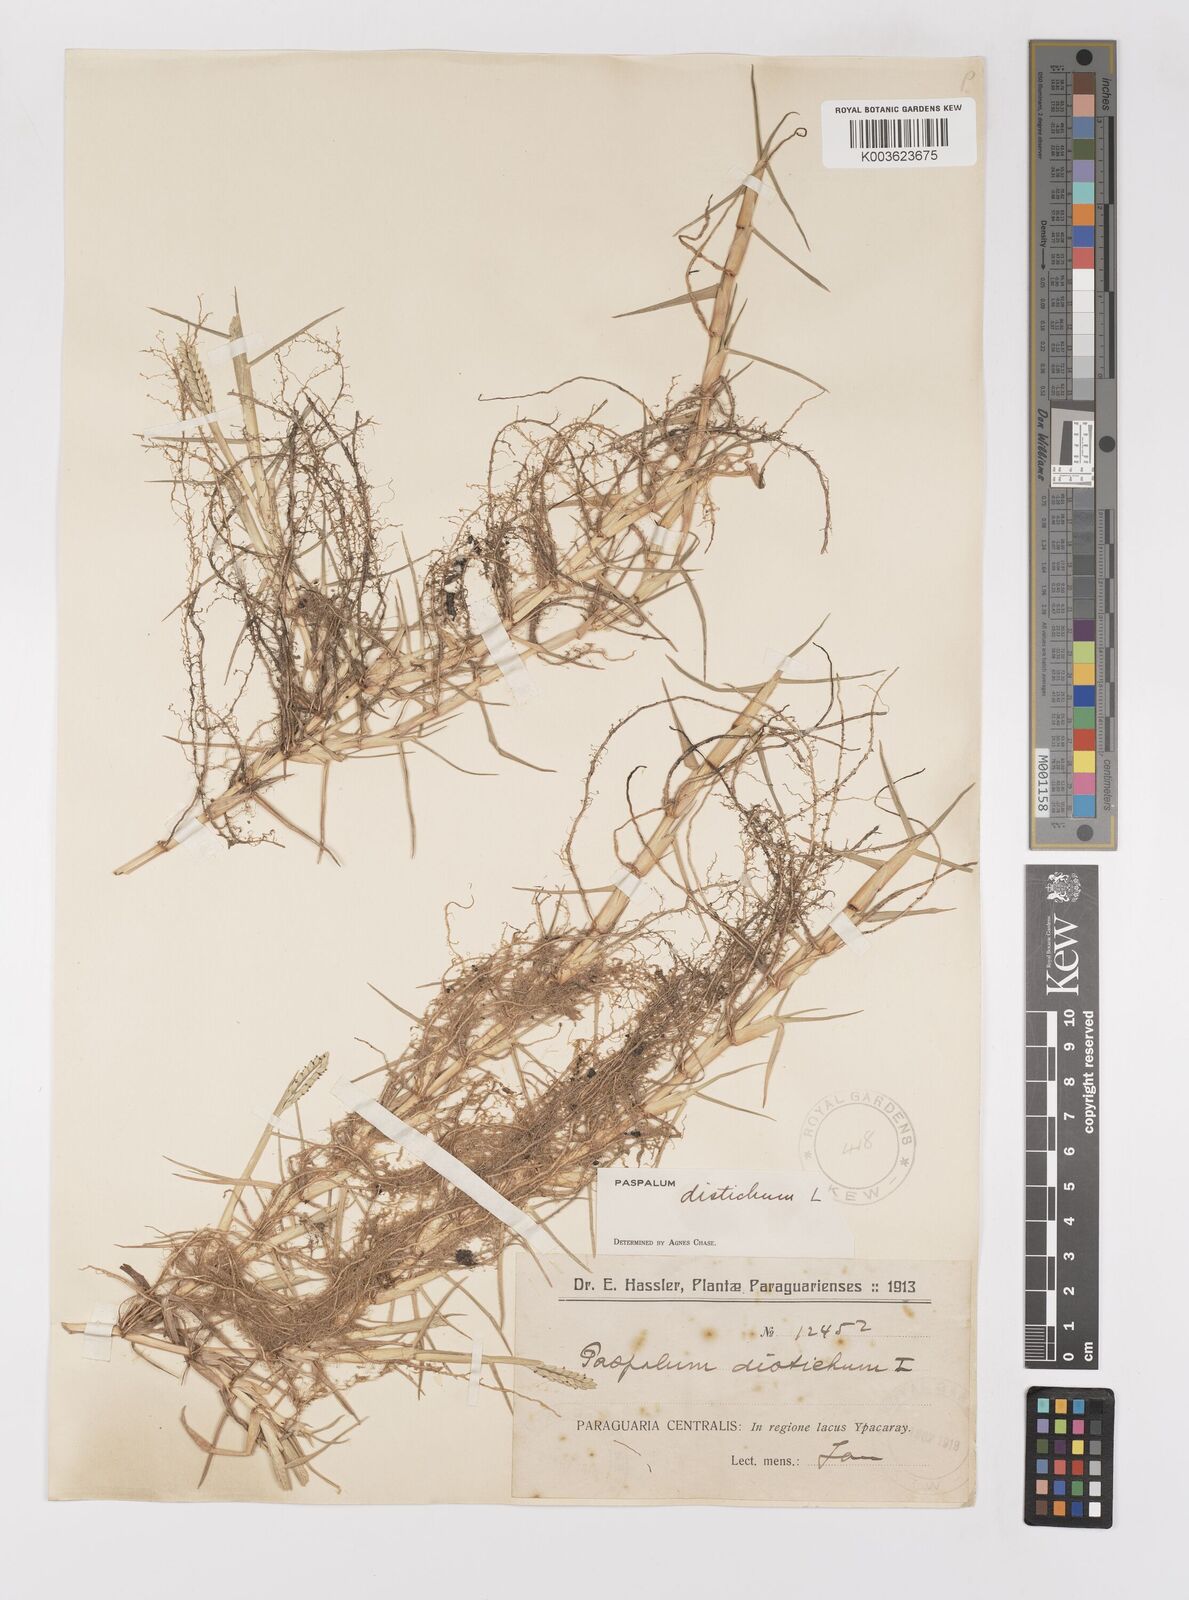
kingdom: Plantae
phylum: Tracheophyta
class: Liliopsida
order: Poales
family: Poaceae
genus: Paspalum
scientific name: Paspalum distichum
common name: Knotgrass
